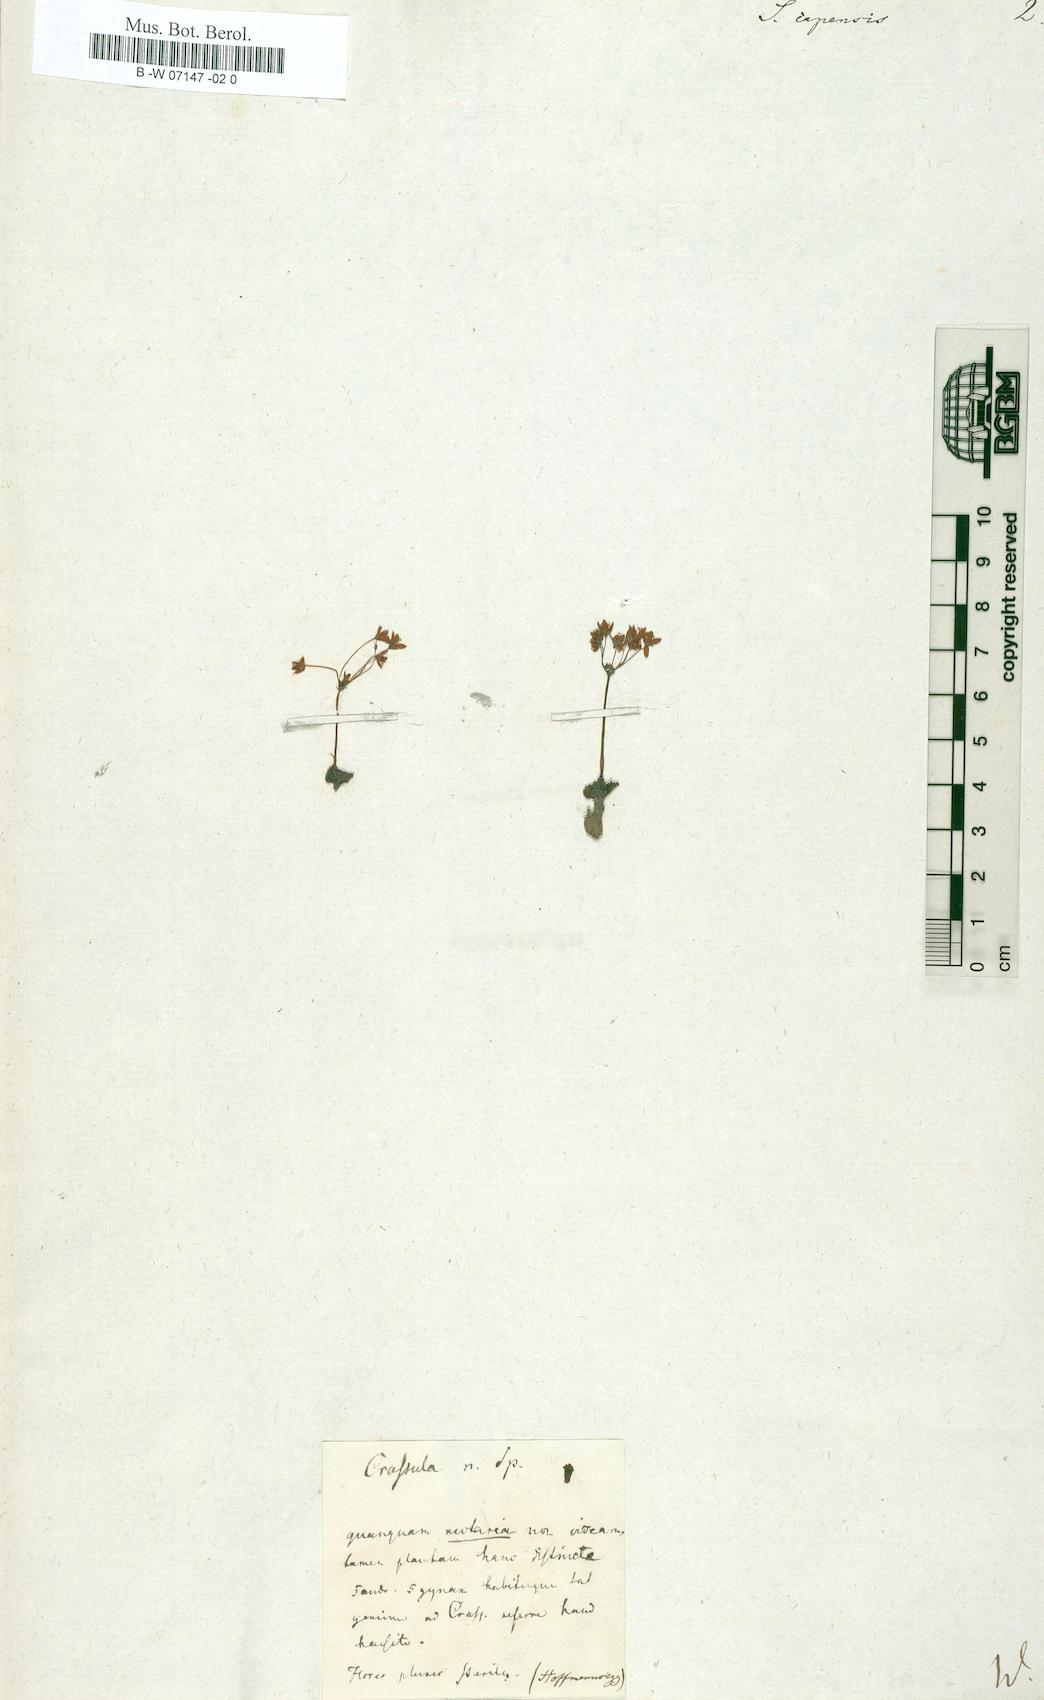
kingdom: Plantae
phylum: Tracheophyta
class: Magnoliopsida
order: Saxifragales
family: Crassulaceae
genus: Crassula
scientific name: Crassula capensis
